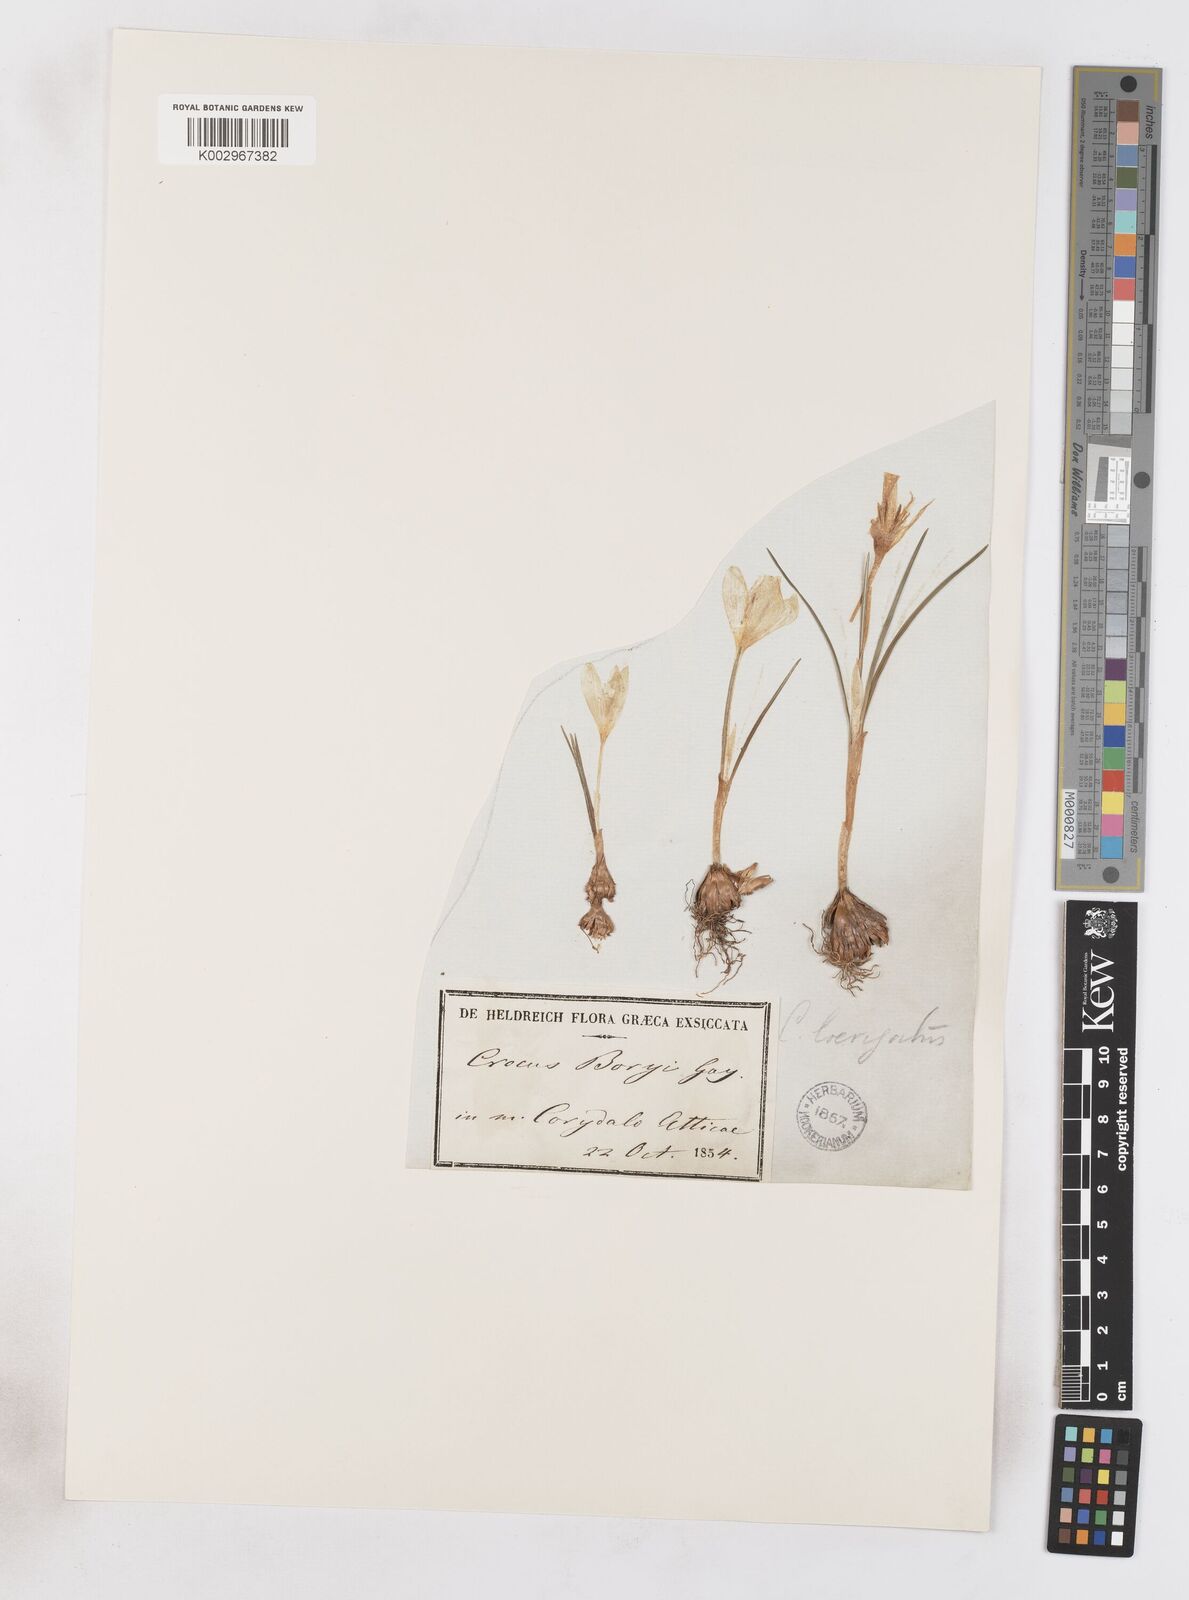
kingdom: Plantae
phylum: Tracheophyta
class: Liliopsida
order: Asparagales
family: Iridaceae
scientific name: Iridaceae
